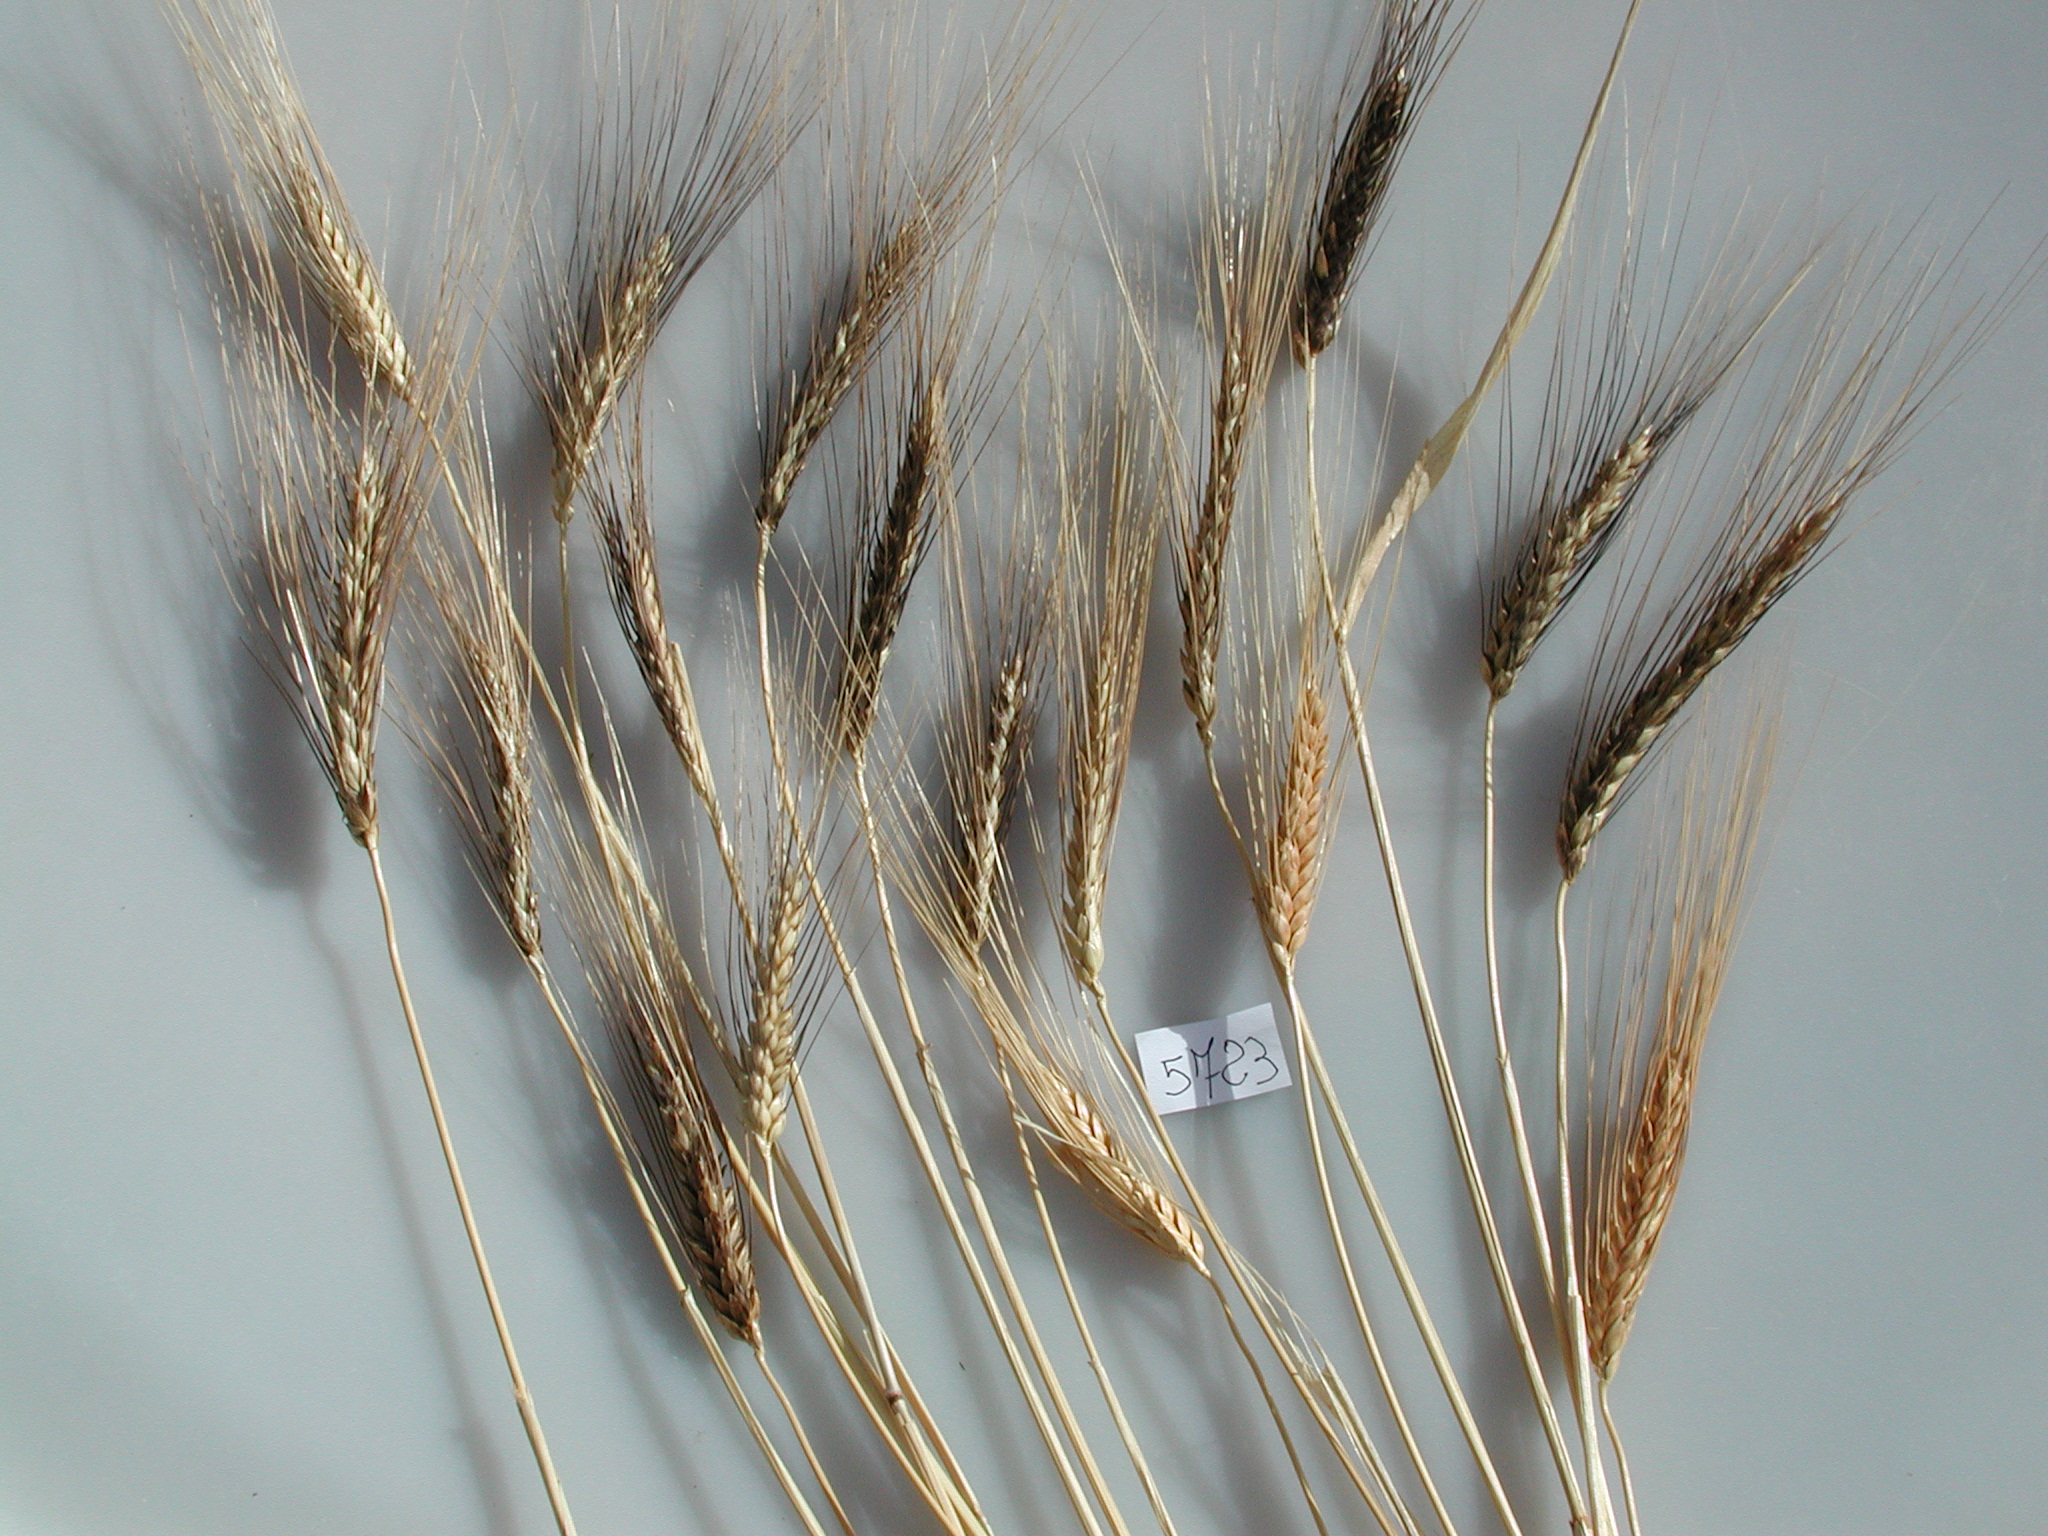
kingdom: Plantae
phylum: Tracheophyta
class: Liliopsida
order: Poales
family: Poaceae
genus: Triticum
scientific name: Triticum turgidum
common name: Wheat
